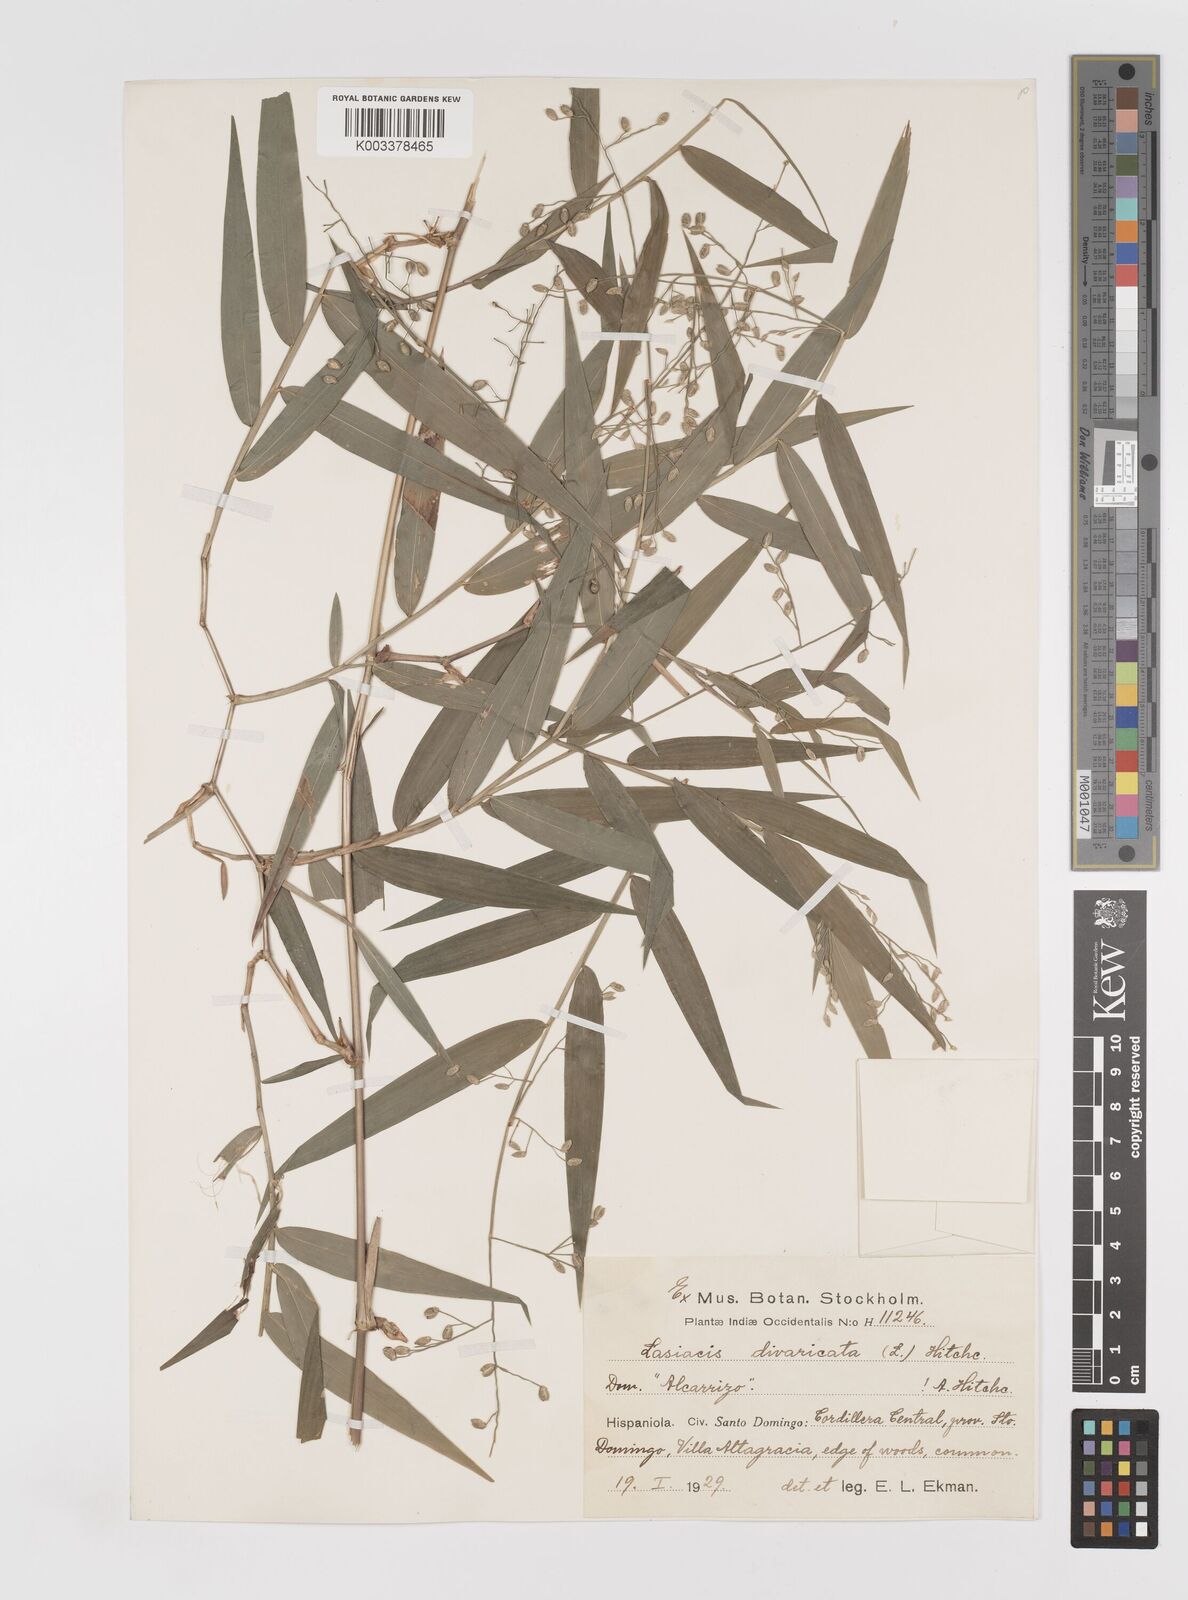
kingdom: Plantae
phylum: Tracheophyta
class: Liliopsida
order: Poales
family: Poaceae
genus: Lasiacis
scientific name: Lasiacis divaricata
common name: Smallcane
